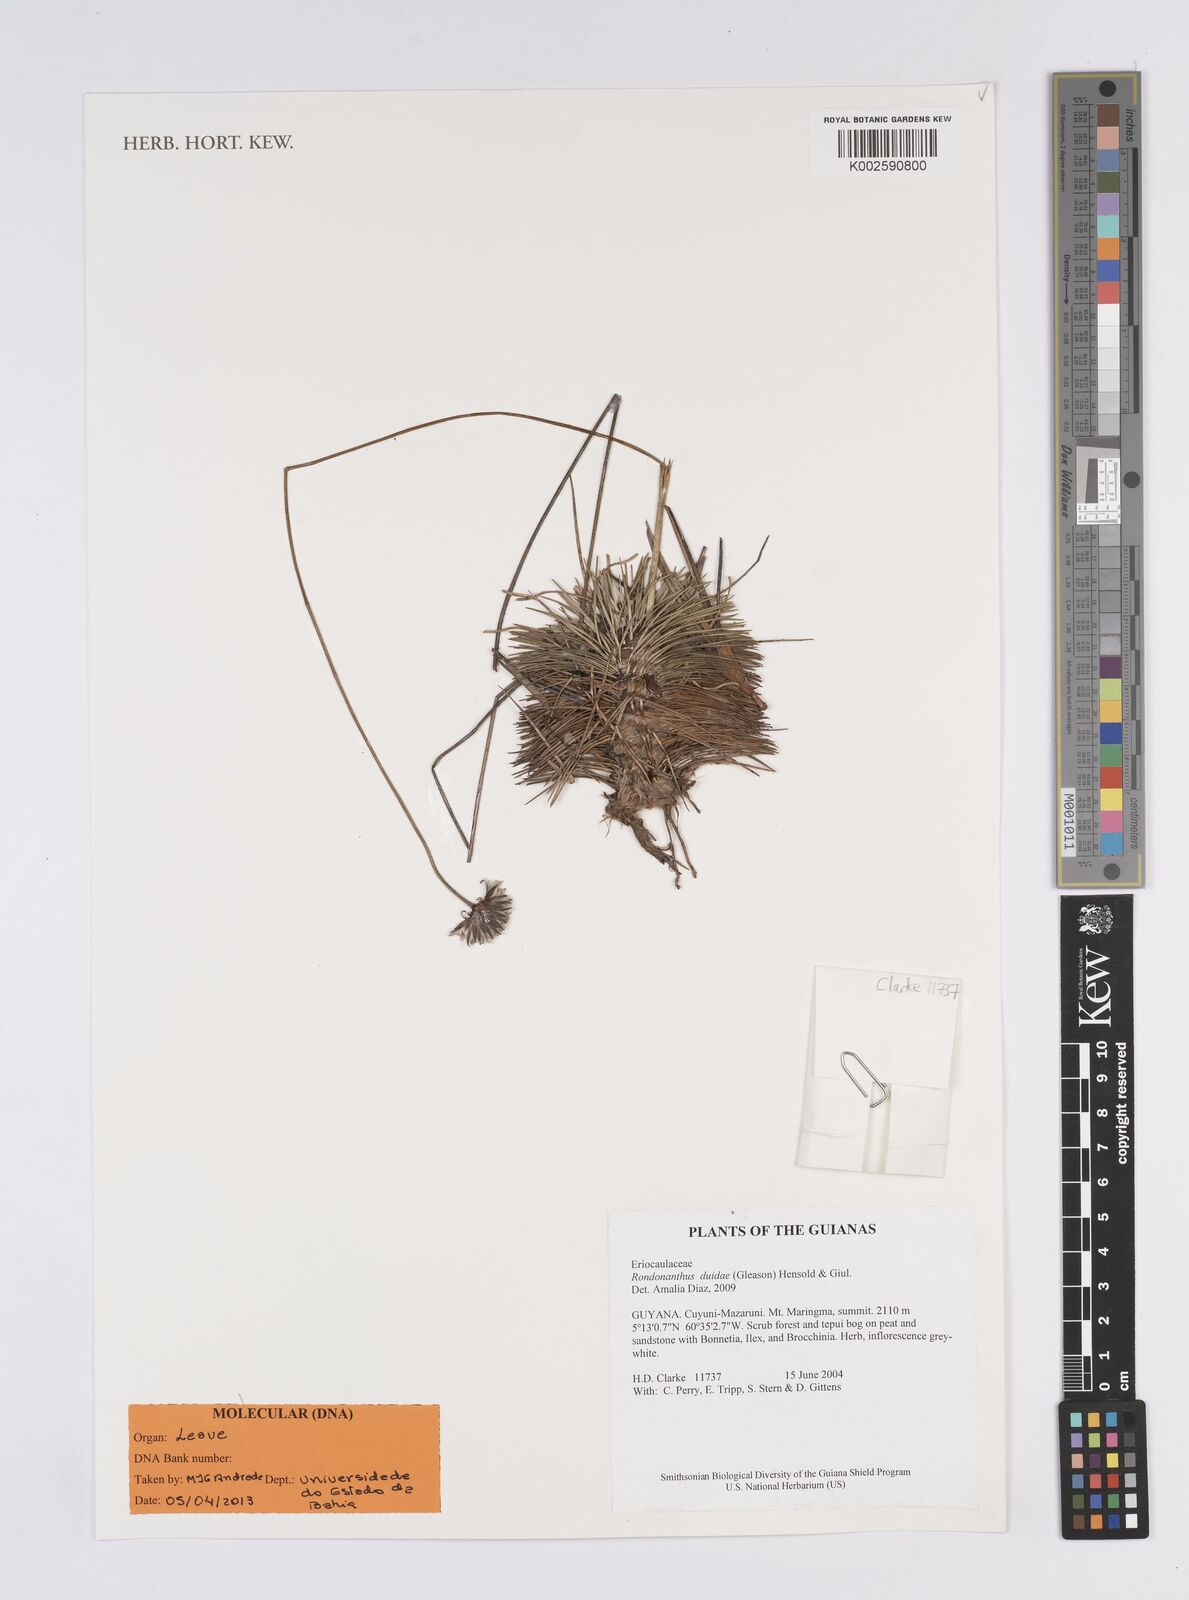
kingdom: Plantae
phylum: Tracheophyta
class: Liliopsida
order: Poales
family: Eriocaulaceae
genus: Rondonanthus
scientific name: Rondonanthus duidae
